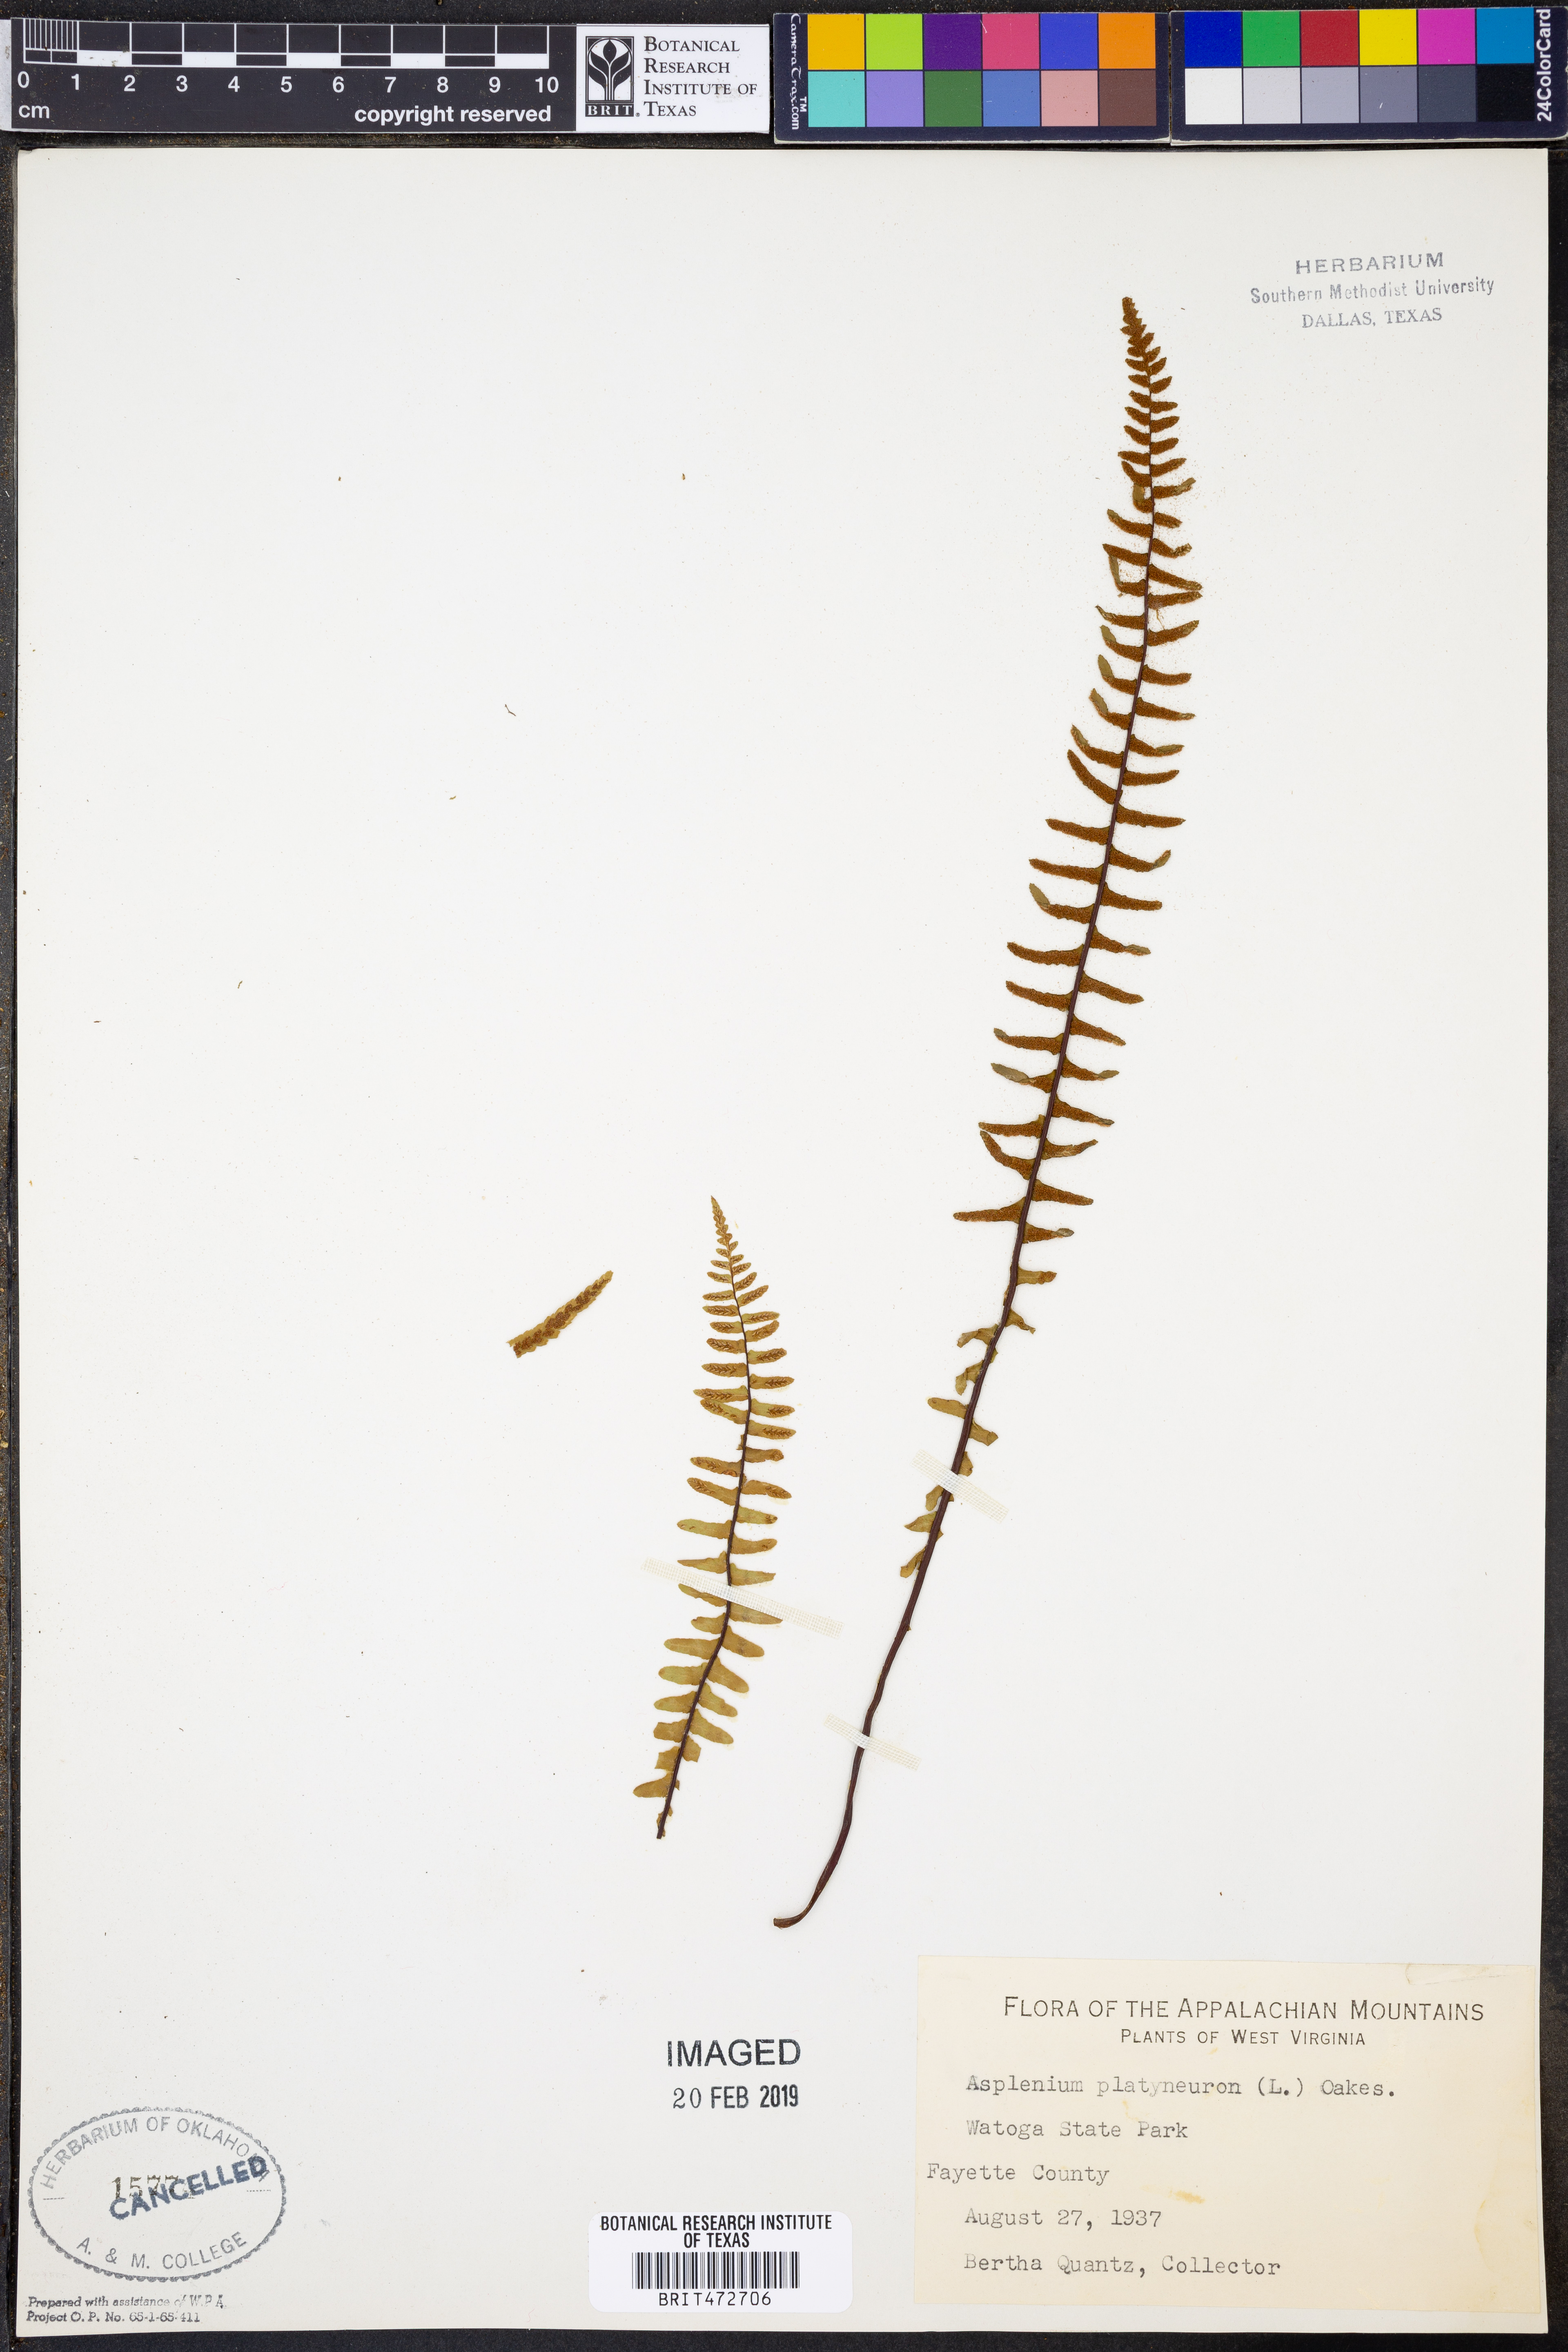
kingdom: Plantae
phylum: Tracheophyta
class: Polypodiopsida
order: Polypodiales
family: Aspleniaceae
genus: Asplenium
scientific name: Asplenium platyneuron
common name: Ebony spleenwort
